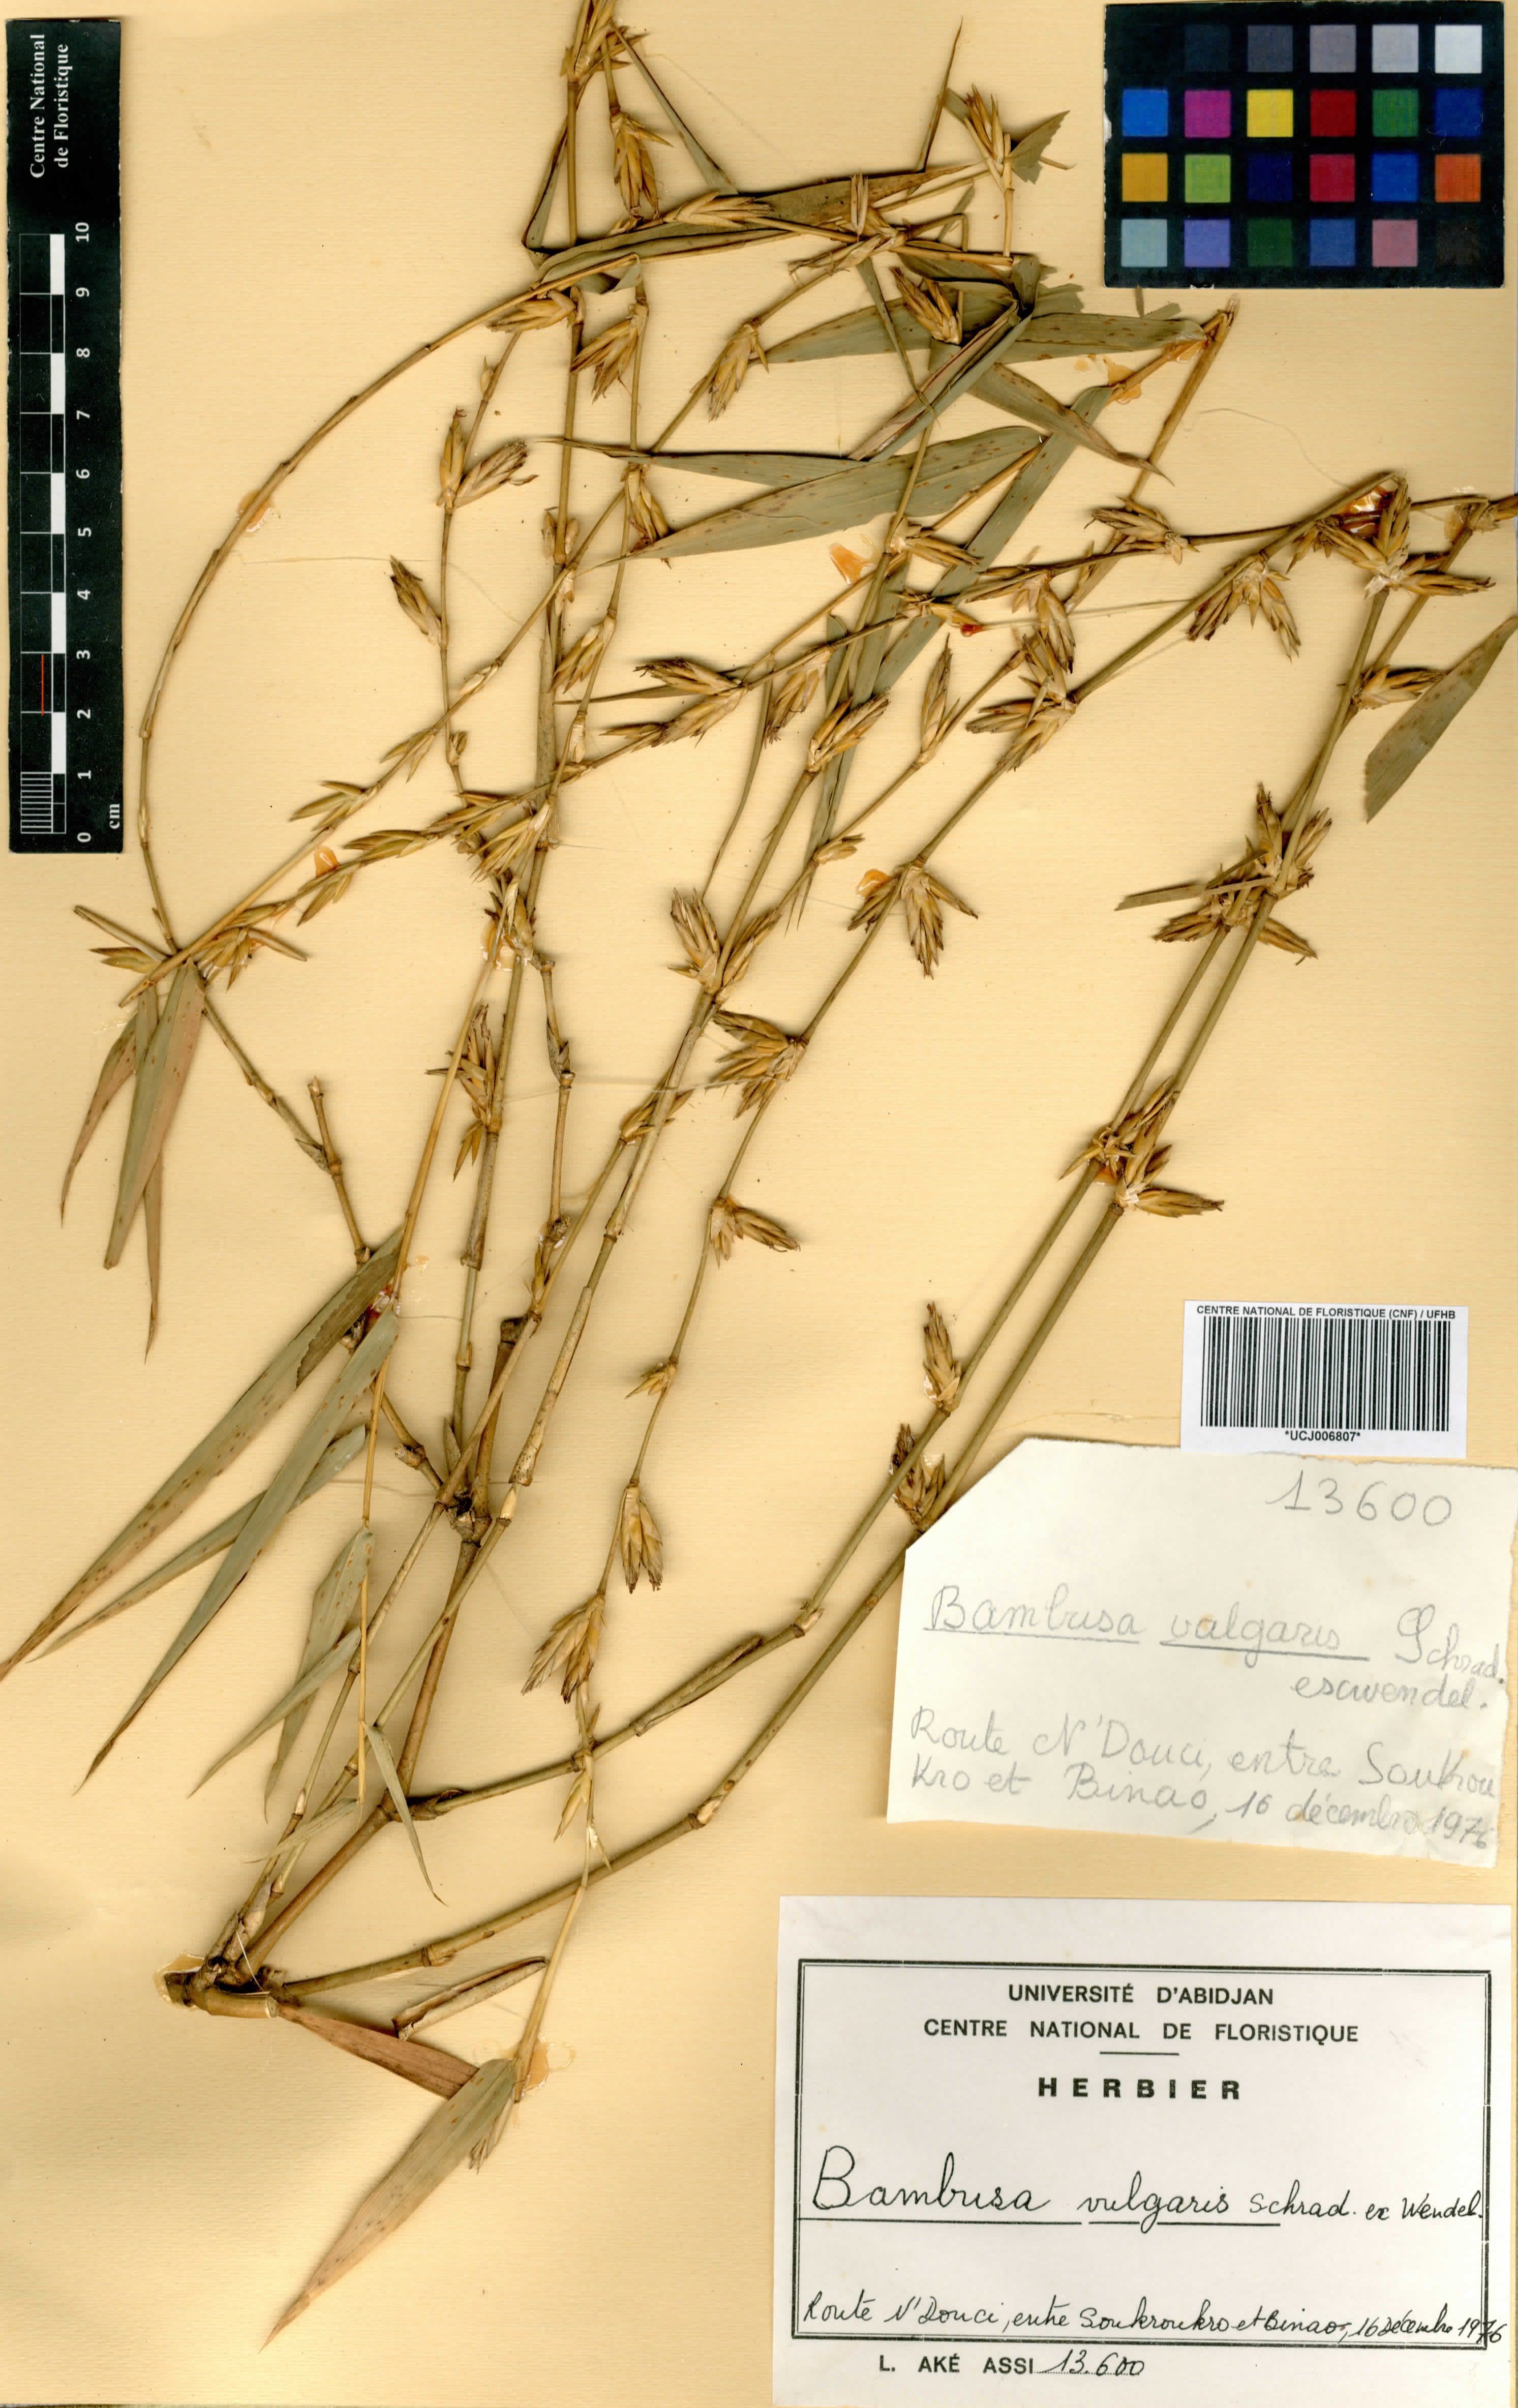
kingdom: Plantae
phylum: Tracheophyta
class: Liliopsida
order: Poales
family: Poaceae
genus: Bambusa
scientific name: Bambusa vulgaris
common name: Common bamboo
